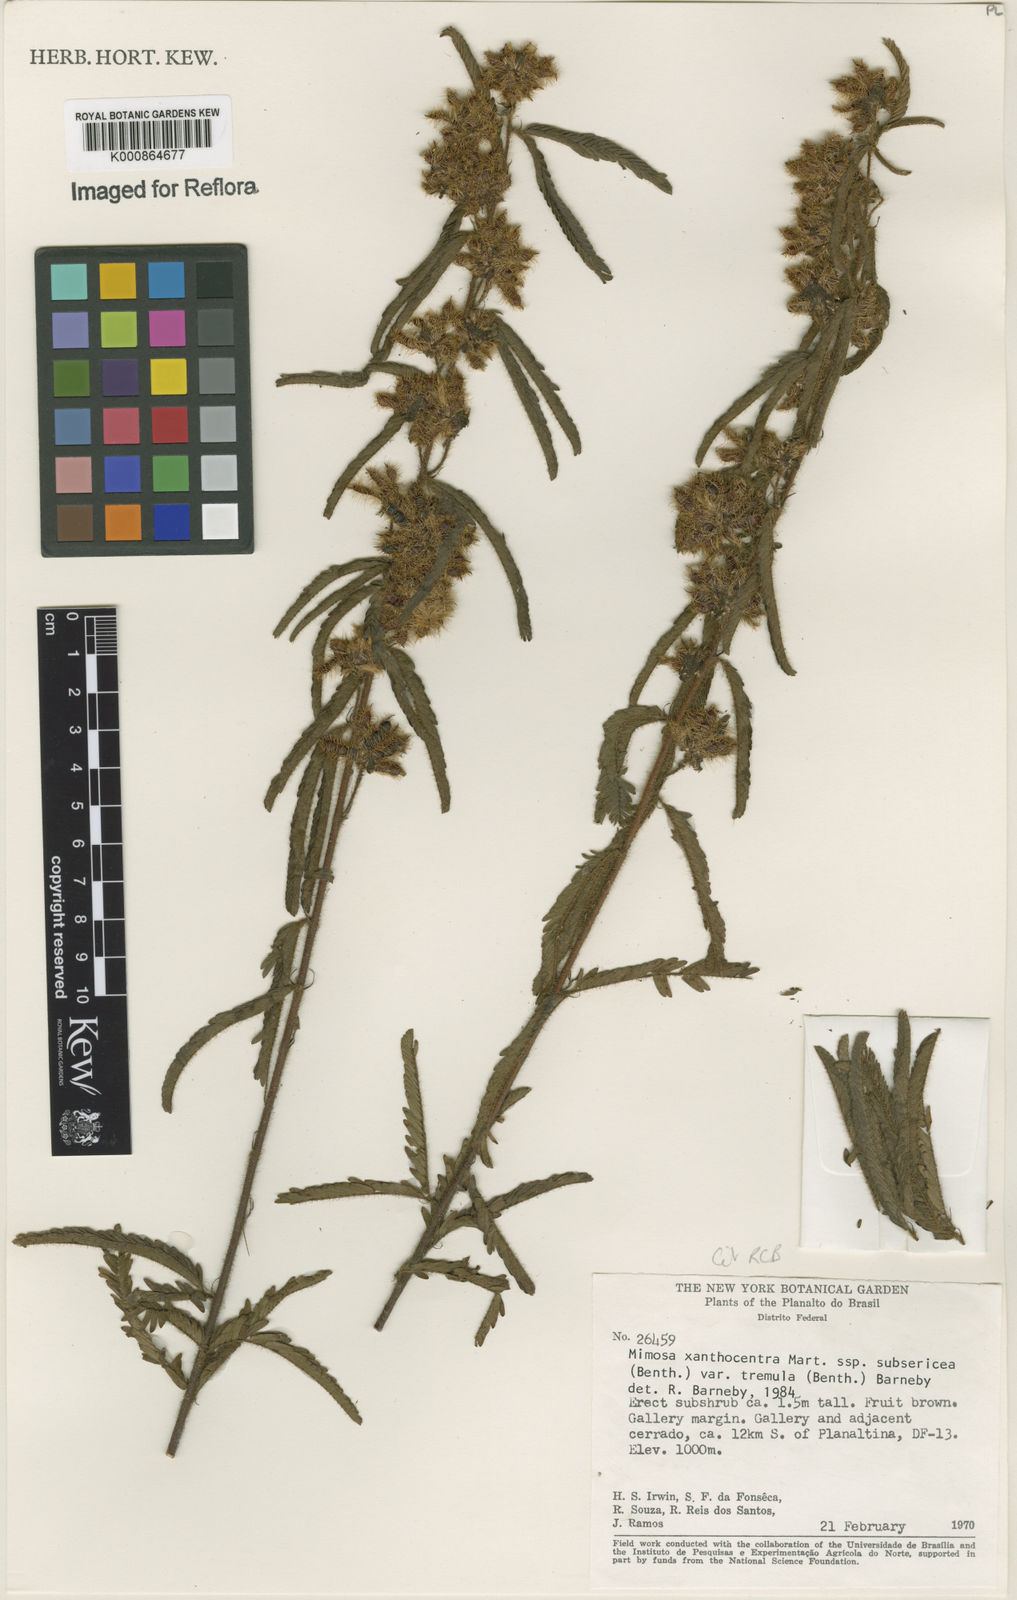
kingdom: Plantae
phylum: Tracheophyta
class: Magnoliopsida
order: Fabales
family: Fabaceae
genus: Mimosa
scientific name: Mimosa xanthocentra
